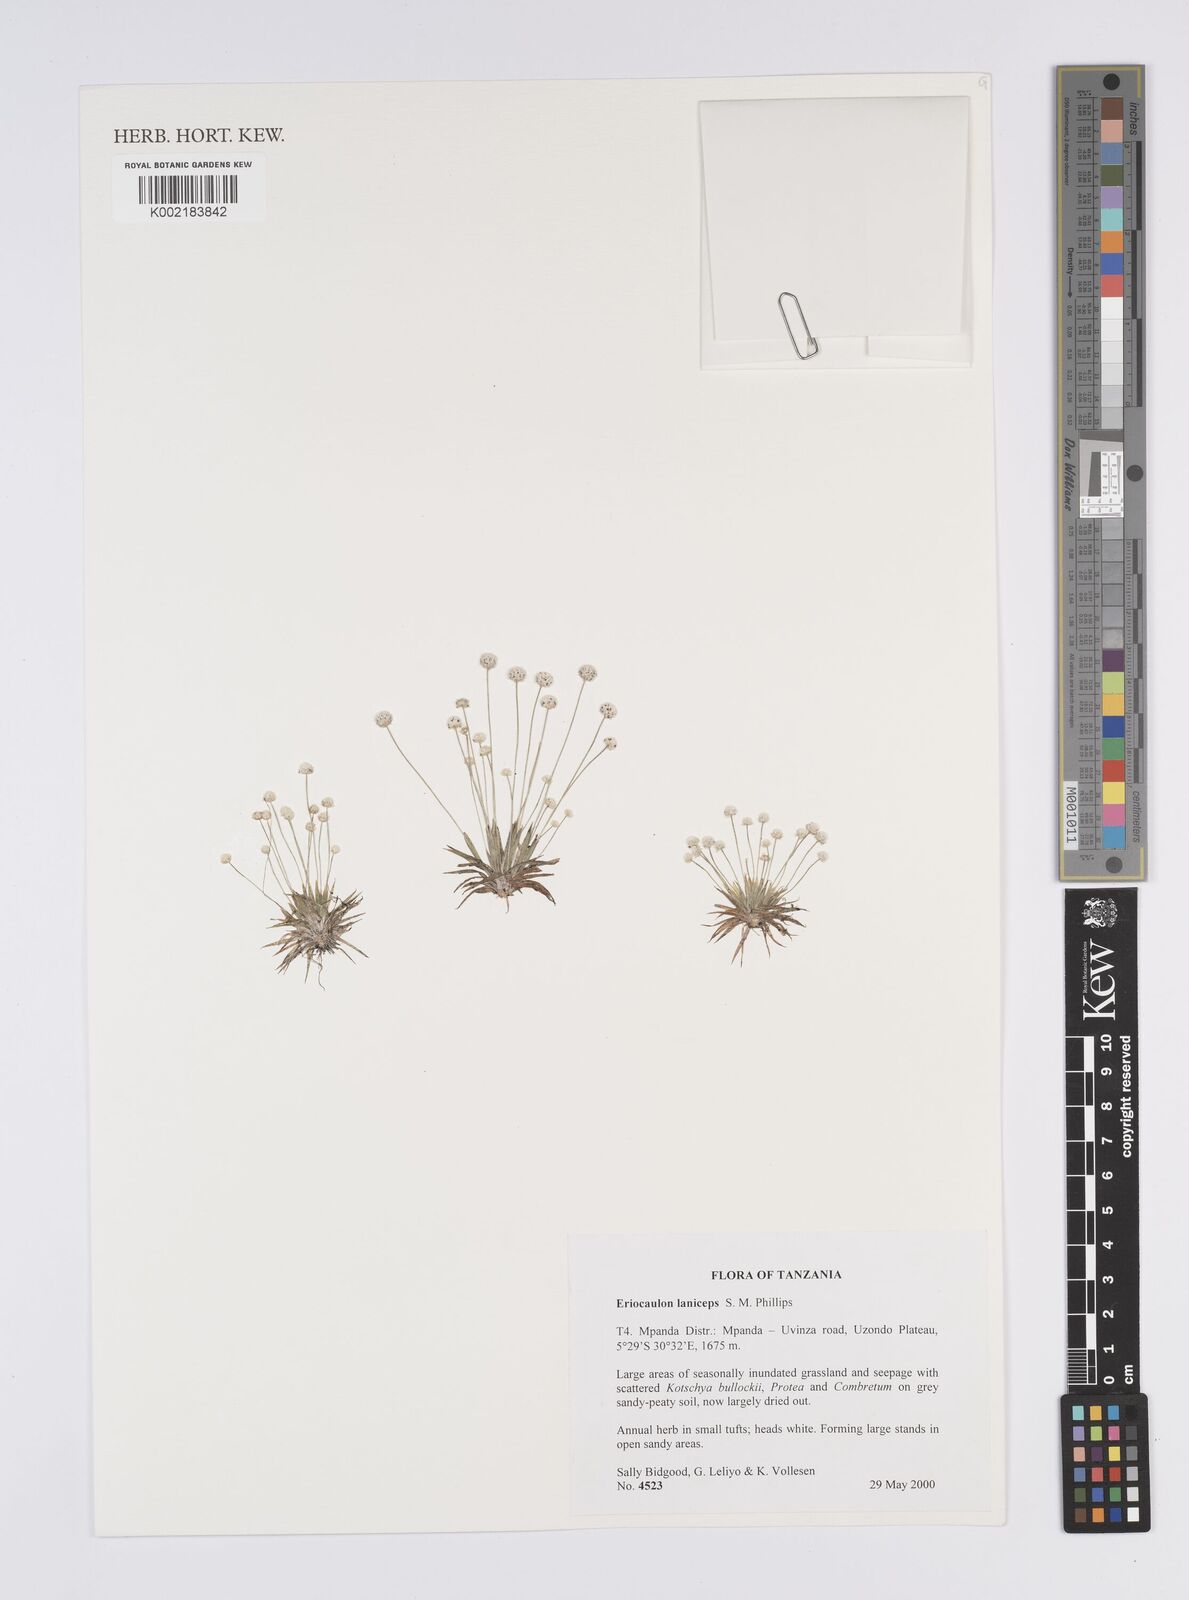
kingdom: Plantae
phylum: Tracheophyta
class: Liliopsida
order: Poales
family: Eriocaulaceae
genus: Eriocaulon
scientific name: Eriocaulon laniceps
